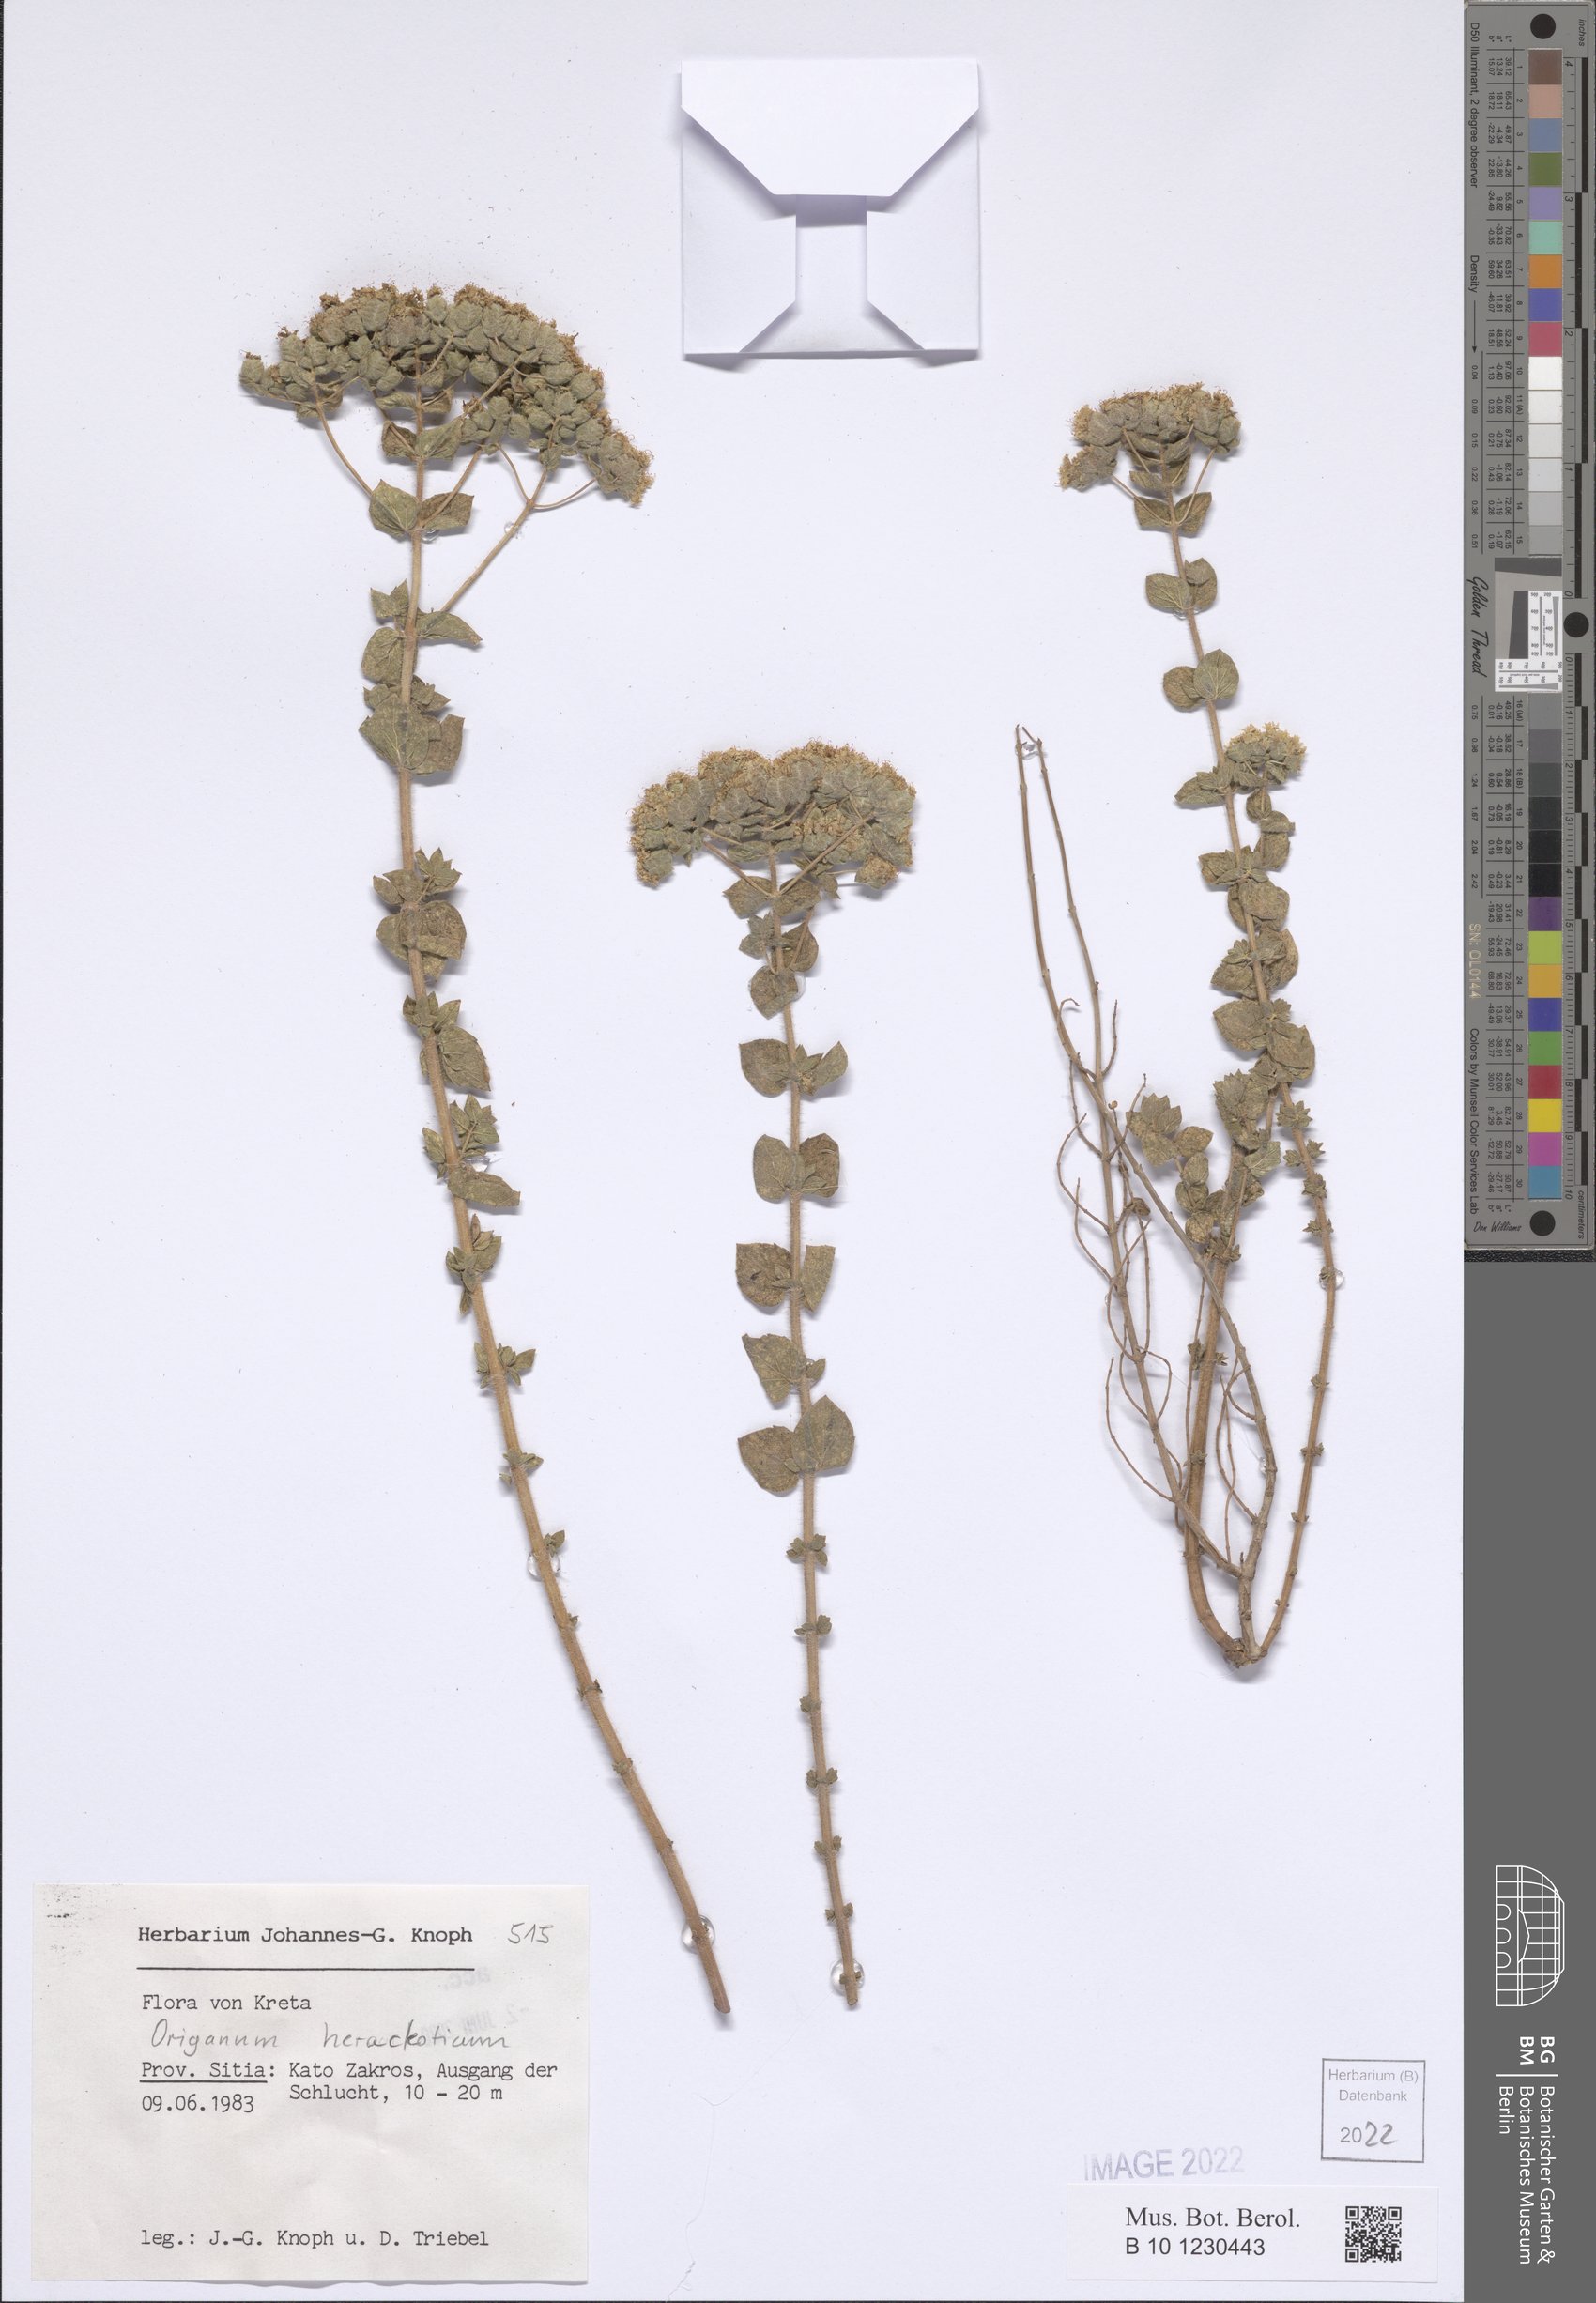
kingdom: Plantae
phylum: Tracheophyta
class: Magnoliopsida
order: Lamiales
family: Lamiaceae
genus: Origanum
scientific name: Origanum vulgare
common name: Wild marjoram
